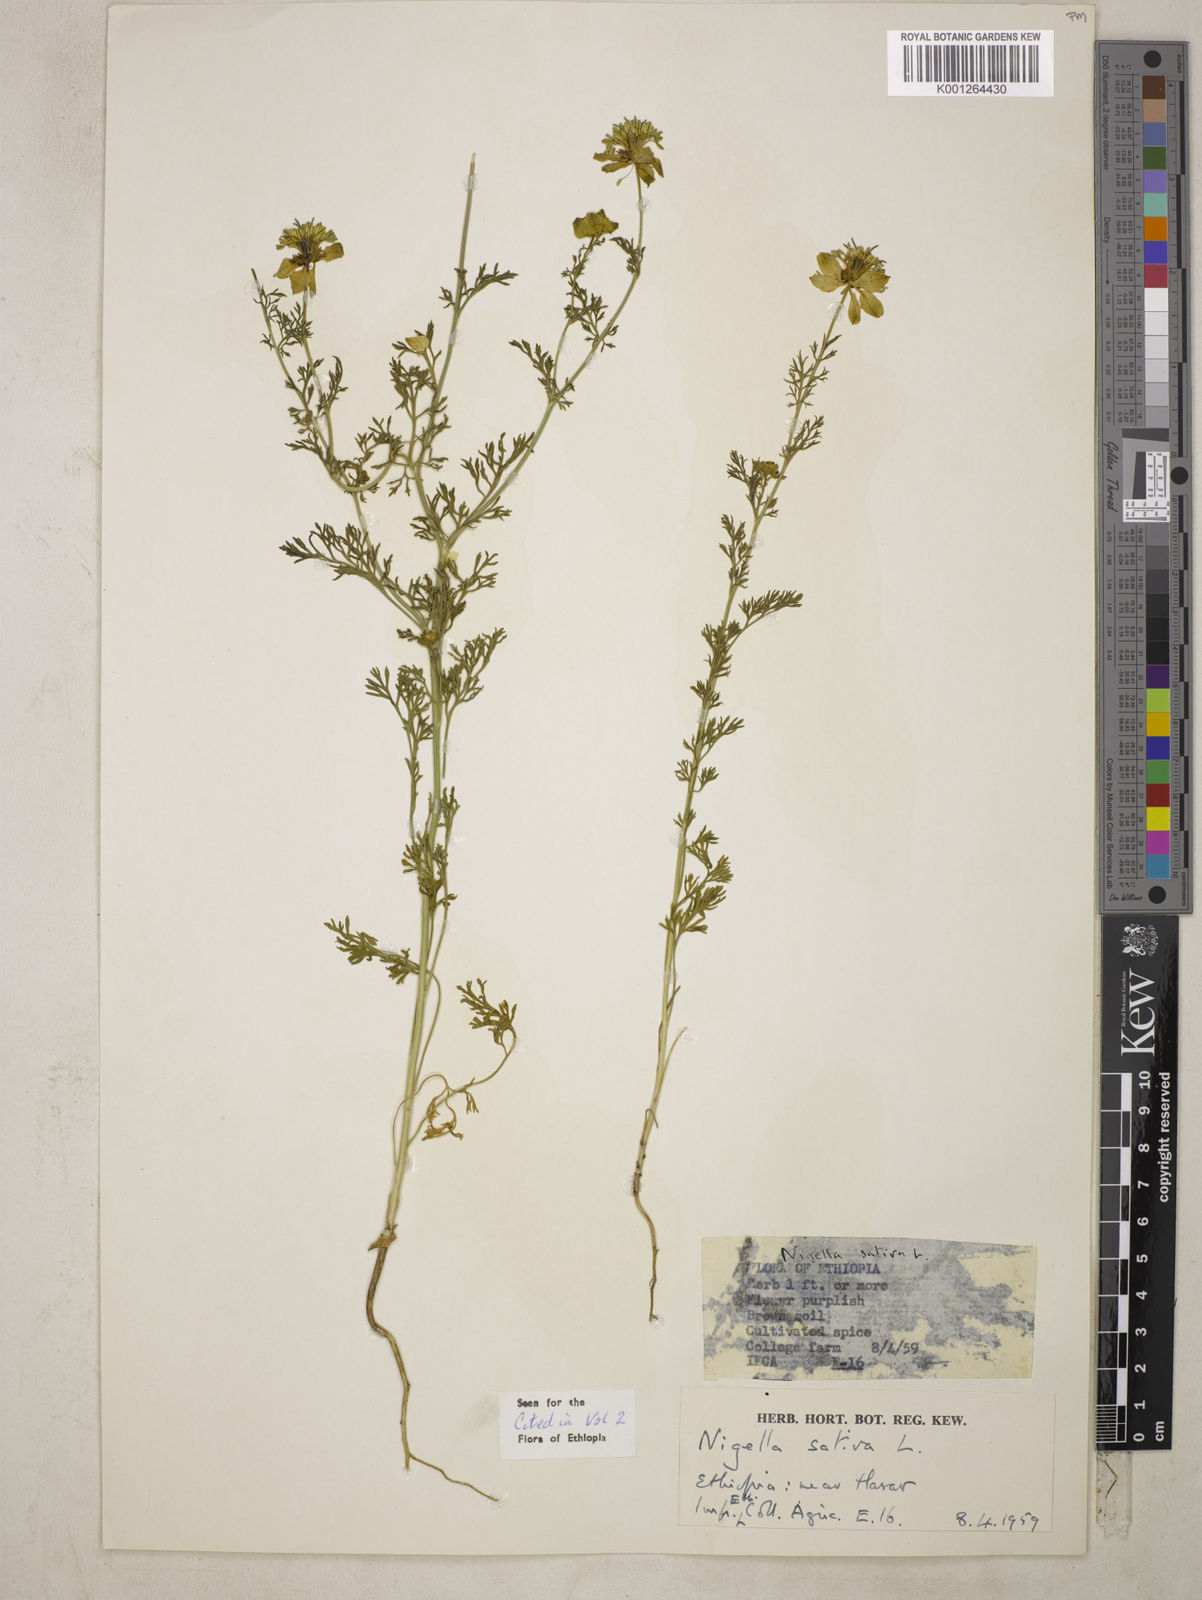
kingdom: Plantae
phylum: Tracheophyta
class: Magnoliopsida
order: Ranunculales
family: Ranunculaceae
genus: Nigella
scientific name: Nigella sativa
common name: Black-cumin
